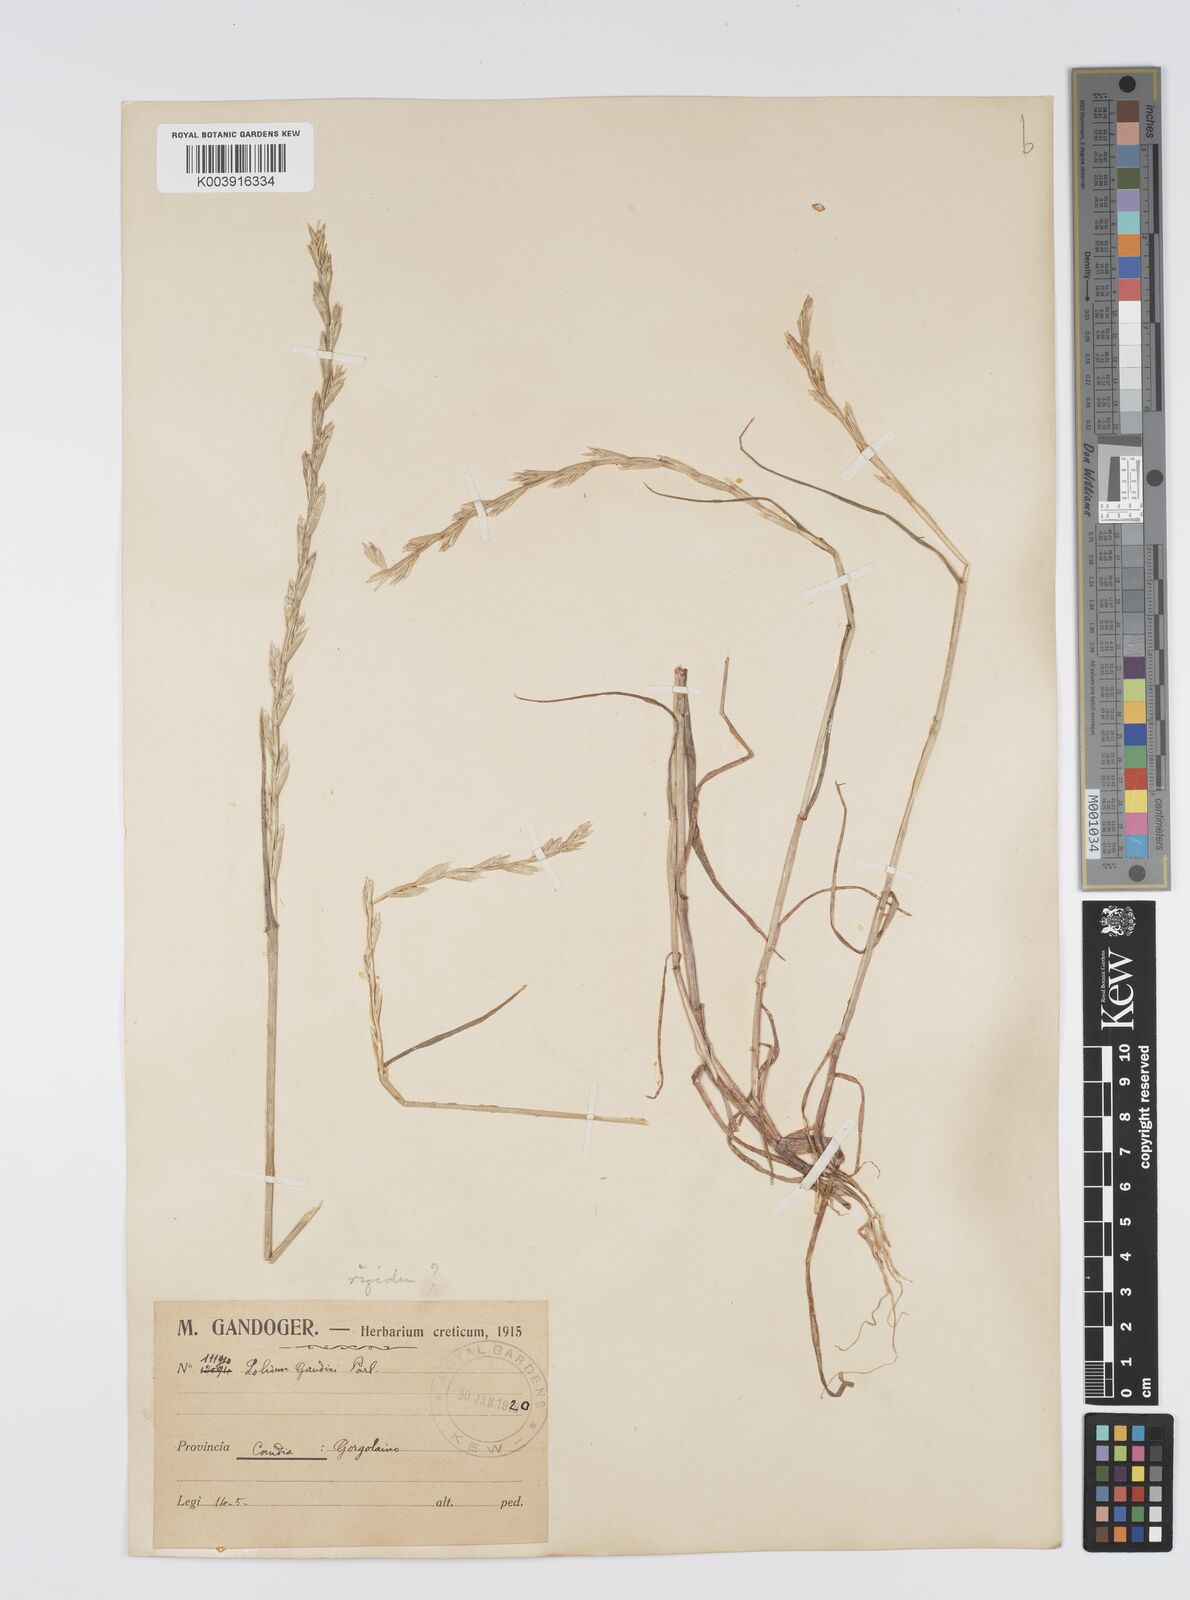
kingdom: Plantae
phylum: Tracheophyta
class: Liliopsida
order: Poales
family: Poaceae
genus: Lolium
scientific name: Lolium rigidum
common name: Wimmera ryegrass
